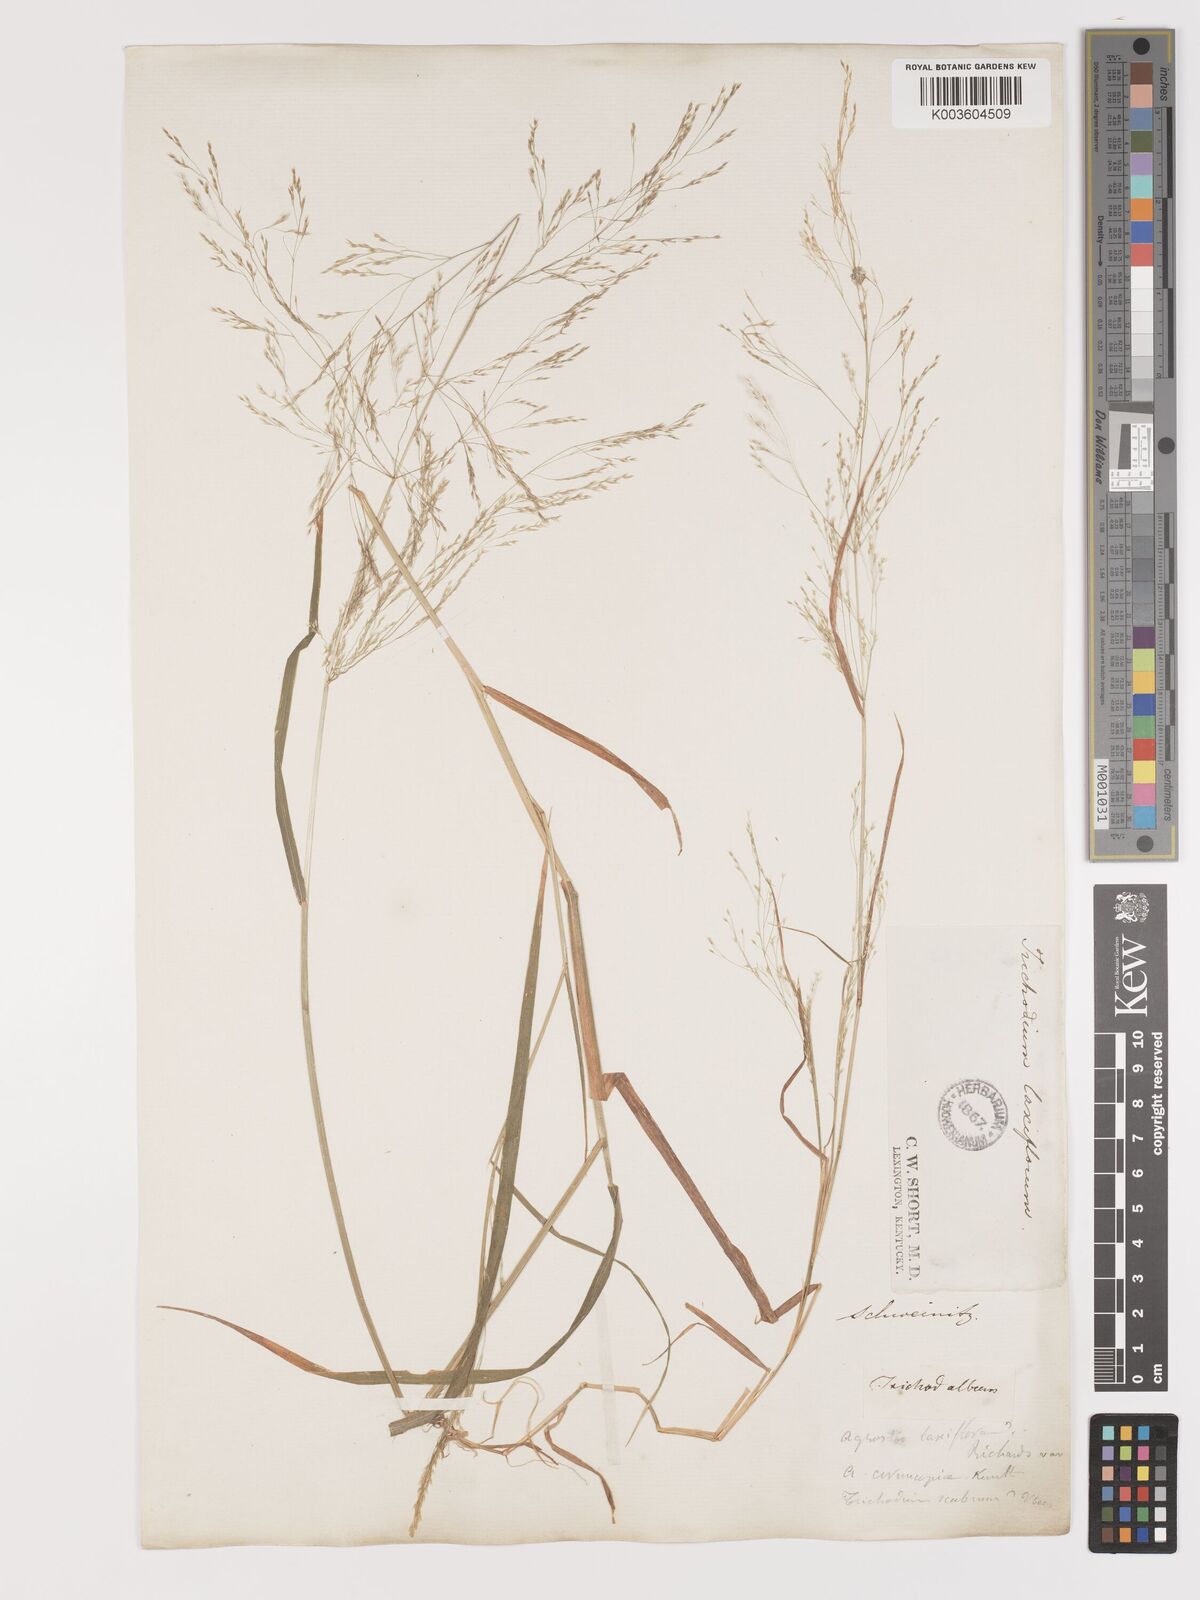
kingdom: Plantae
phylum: Tracheophyta
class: Liliopsida
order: Poales
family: Poaceae
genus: Agrostis
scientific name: Agrostis hyemalis
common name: Small bent
